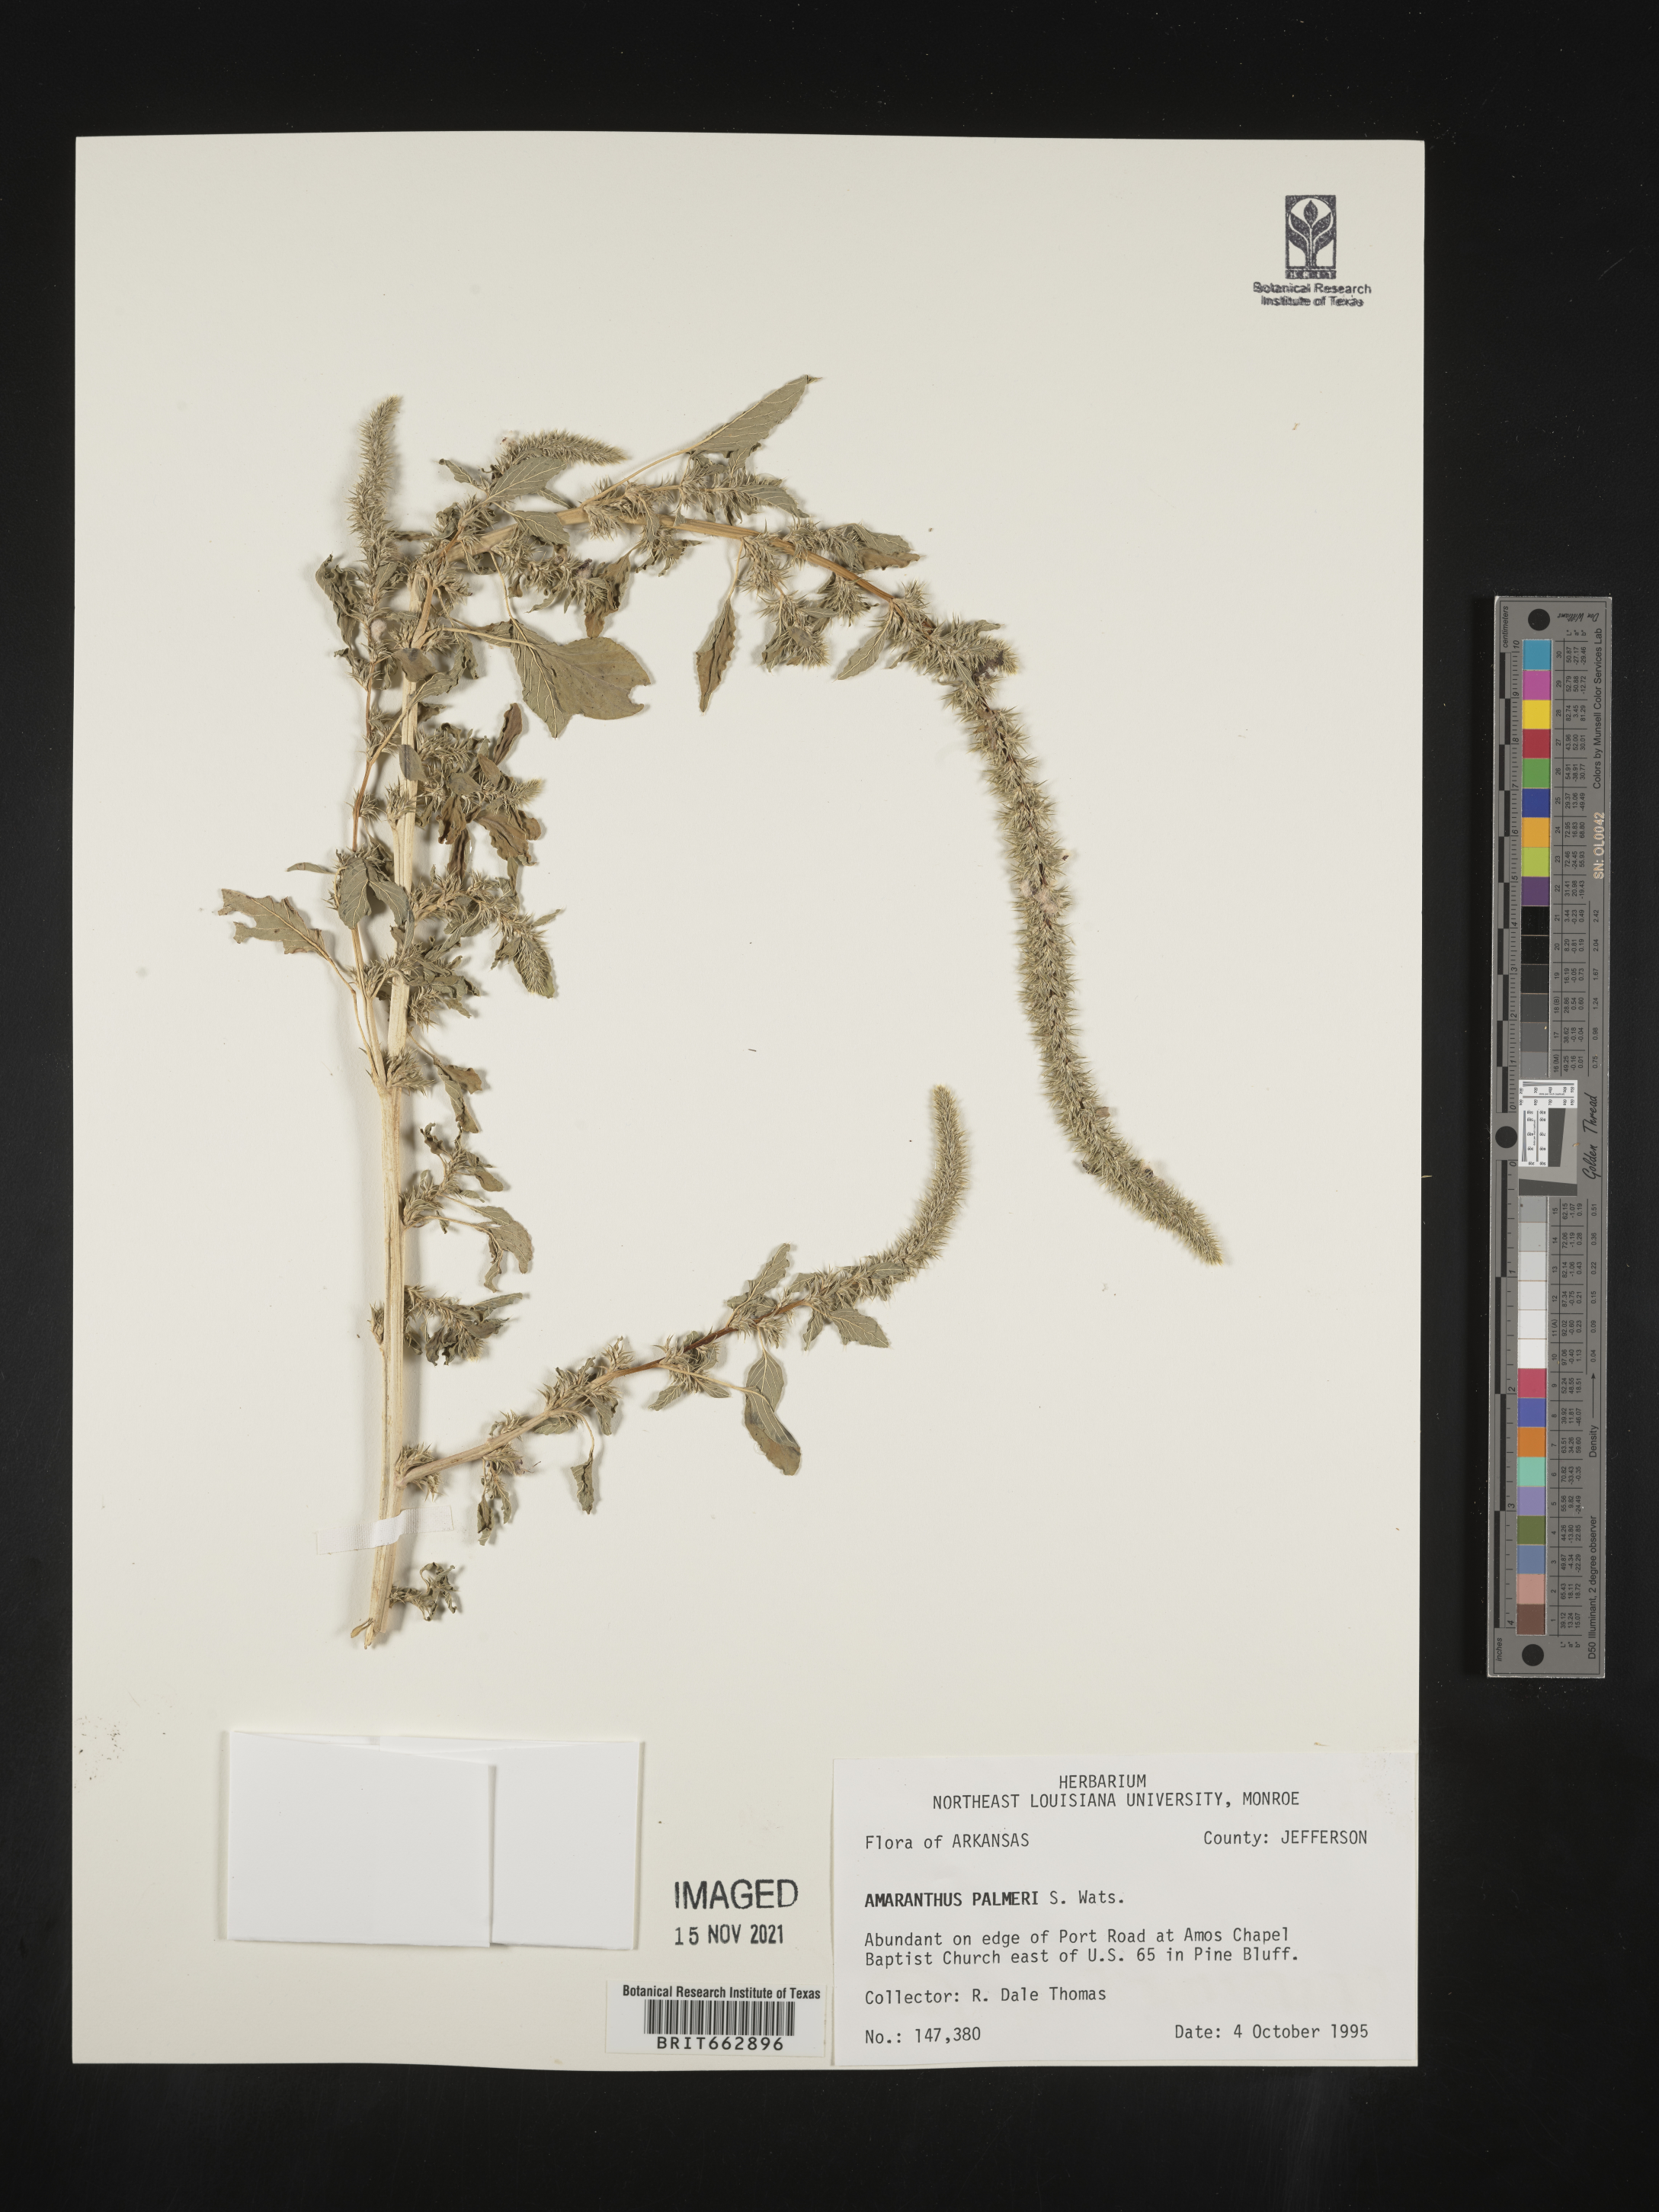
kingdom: Plantae
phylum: Tracheophyta
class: Magnoliopsida
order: Caryophyllales
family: Amaranthaceae
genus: Amaranthus
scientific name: Amaranthus palmeri
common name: Dioecious amaranth
